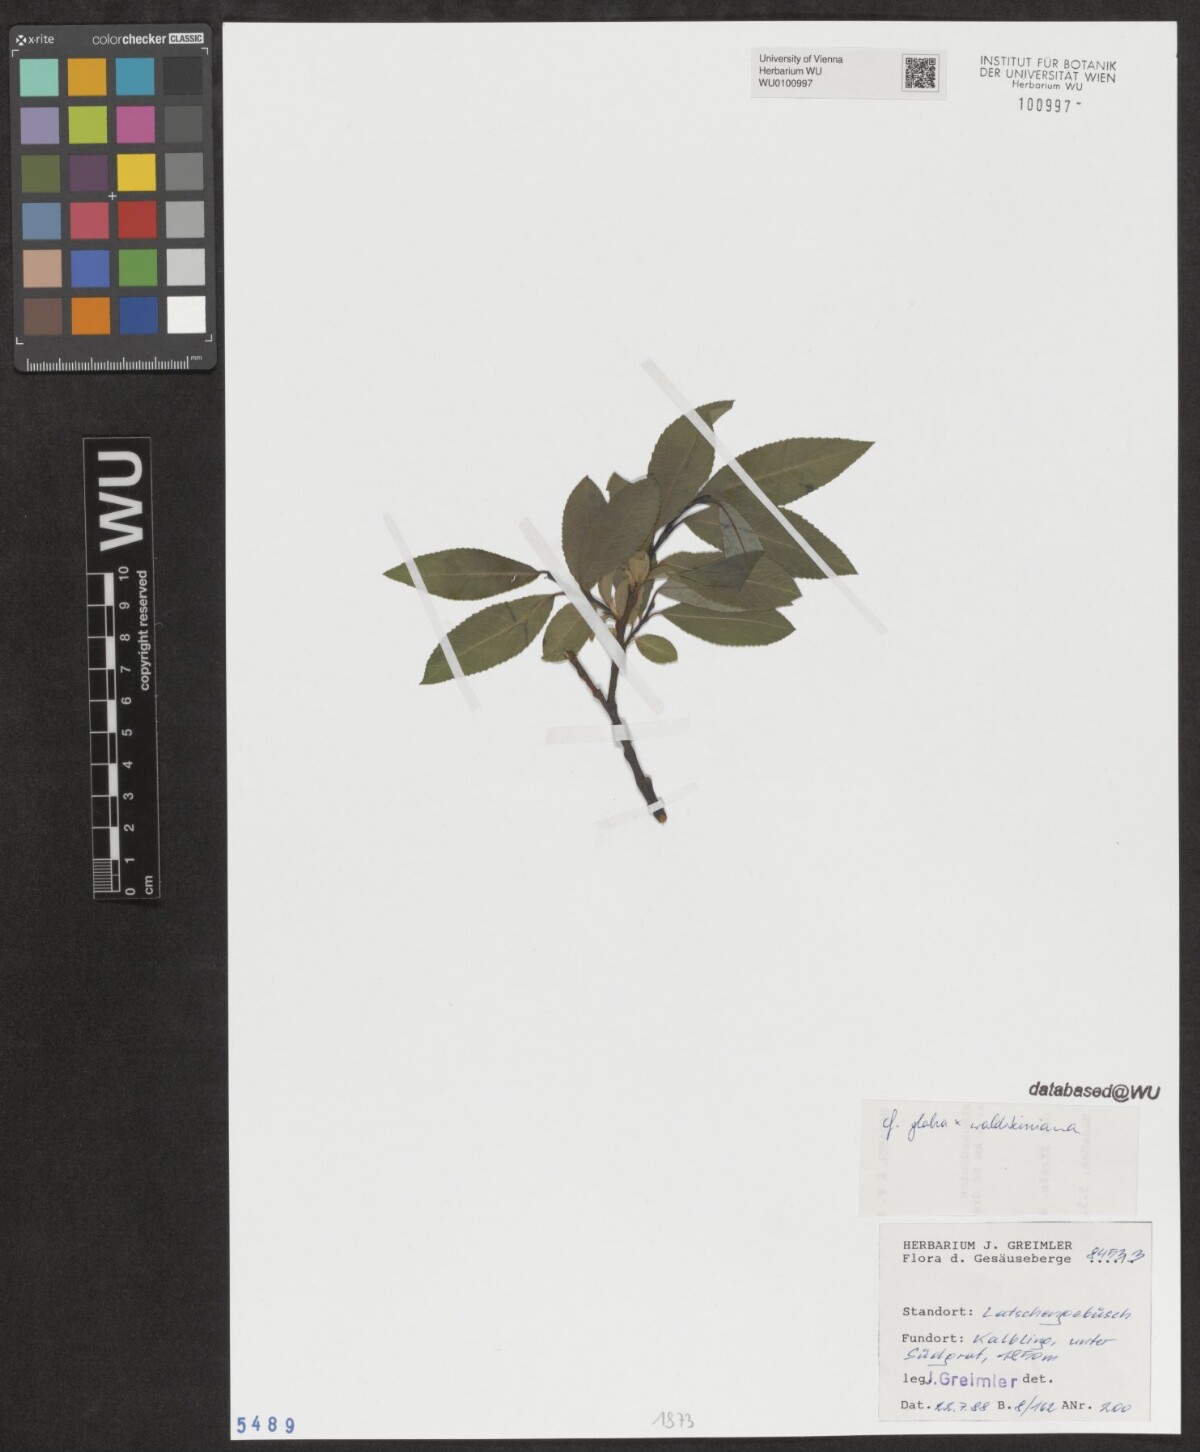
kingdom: Plantae
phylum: Tracheophyta
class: Magnoliopsida
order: Malpighiales
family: Salicaceae
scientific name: Salicaceae
